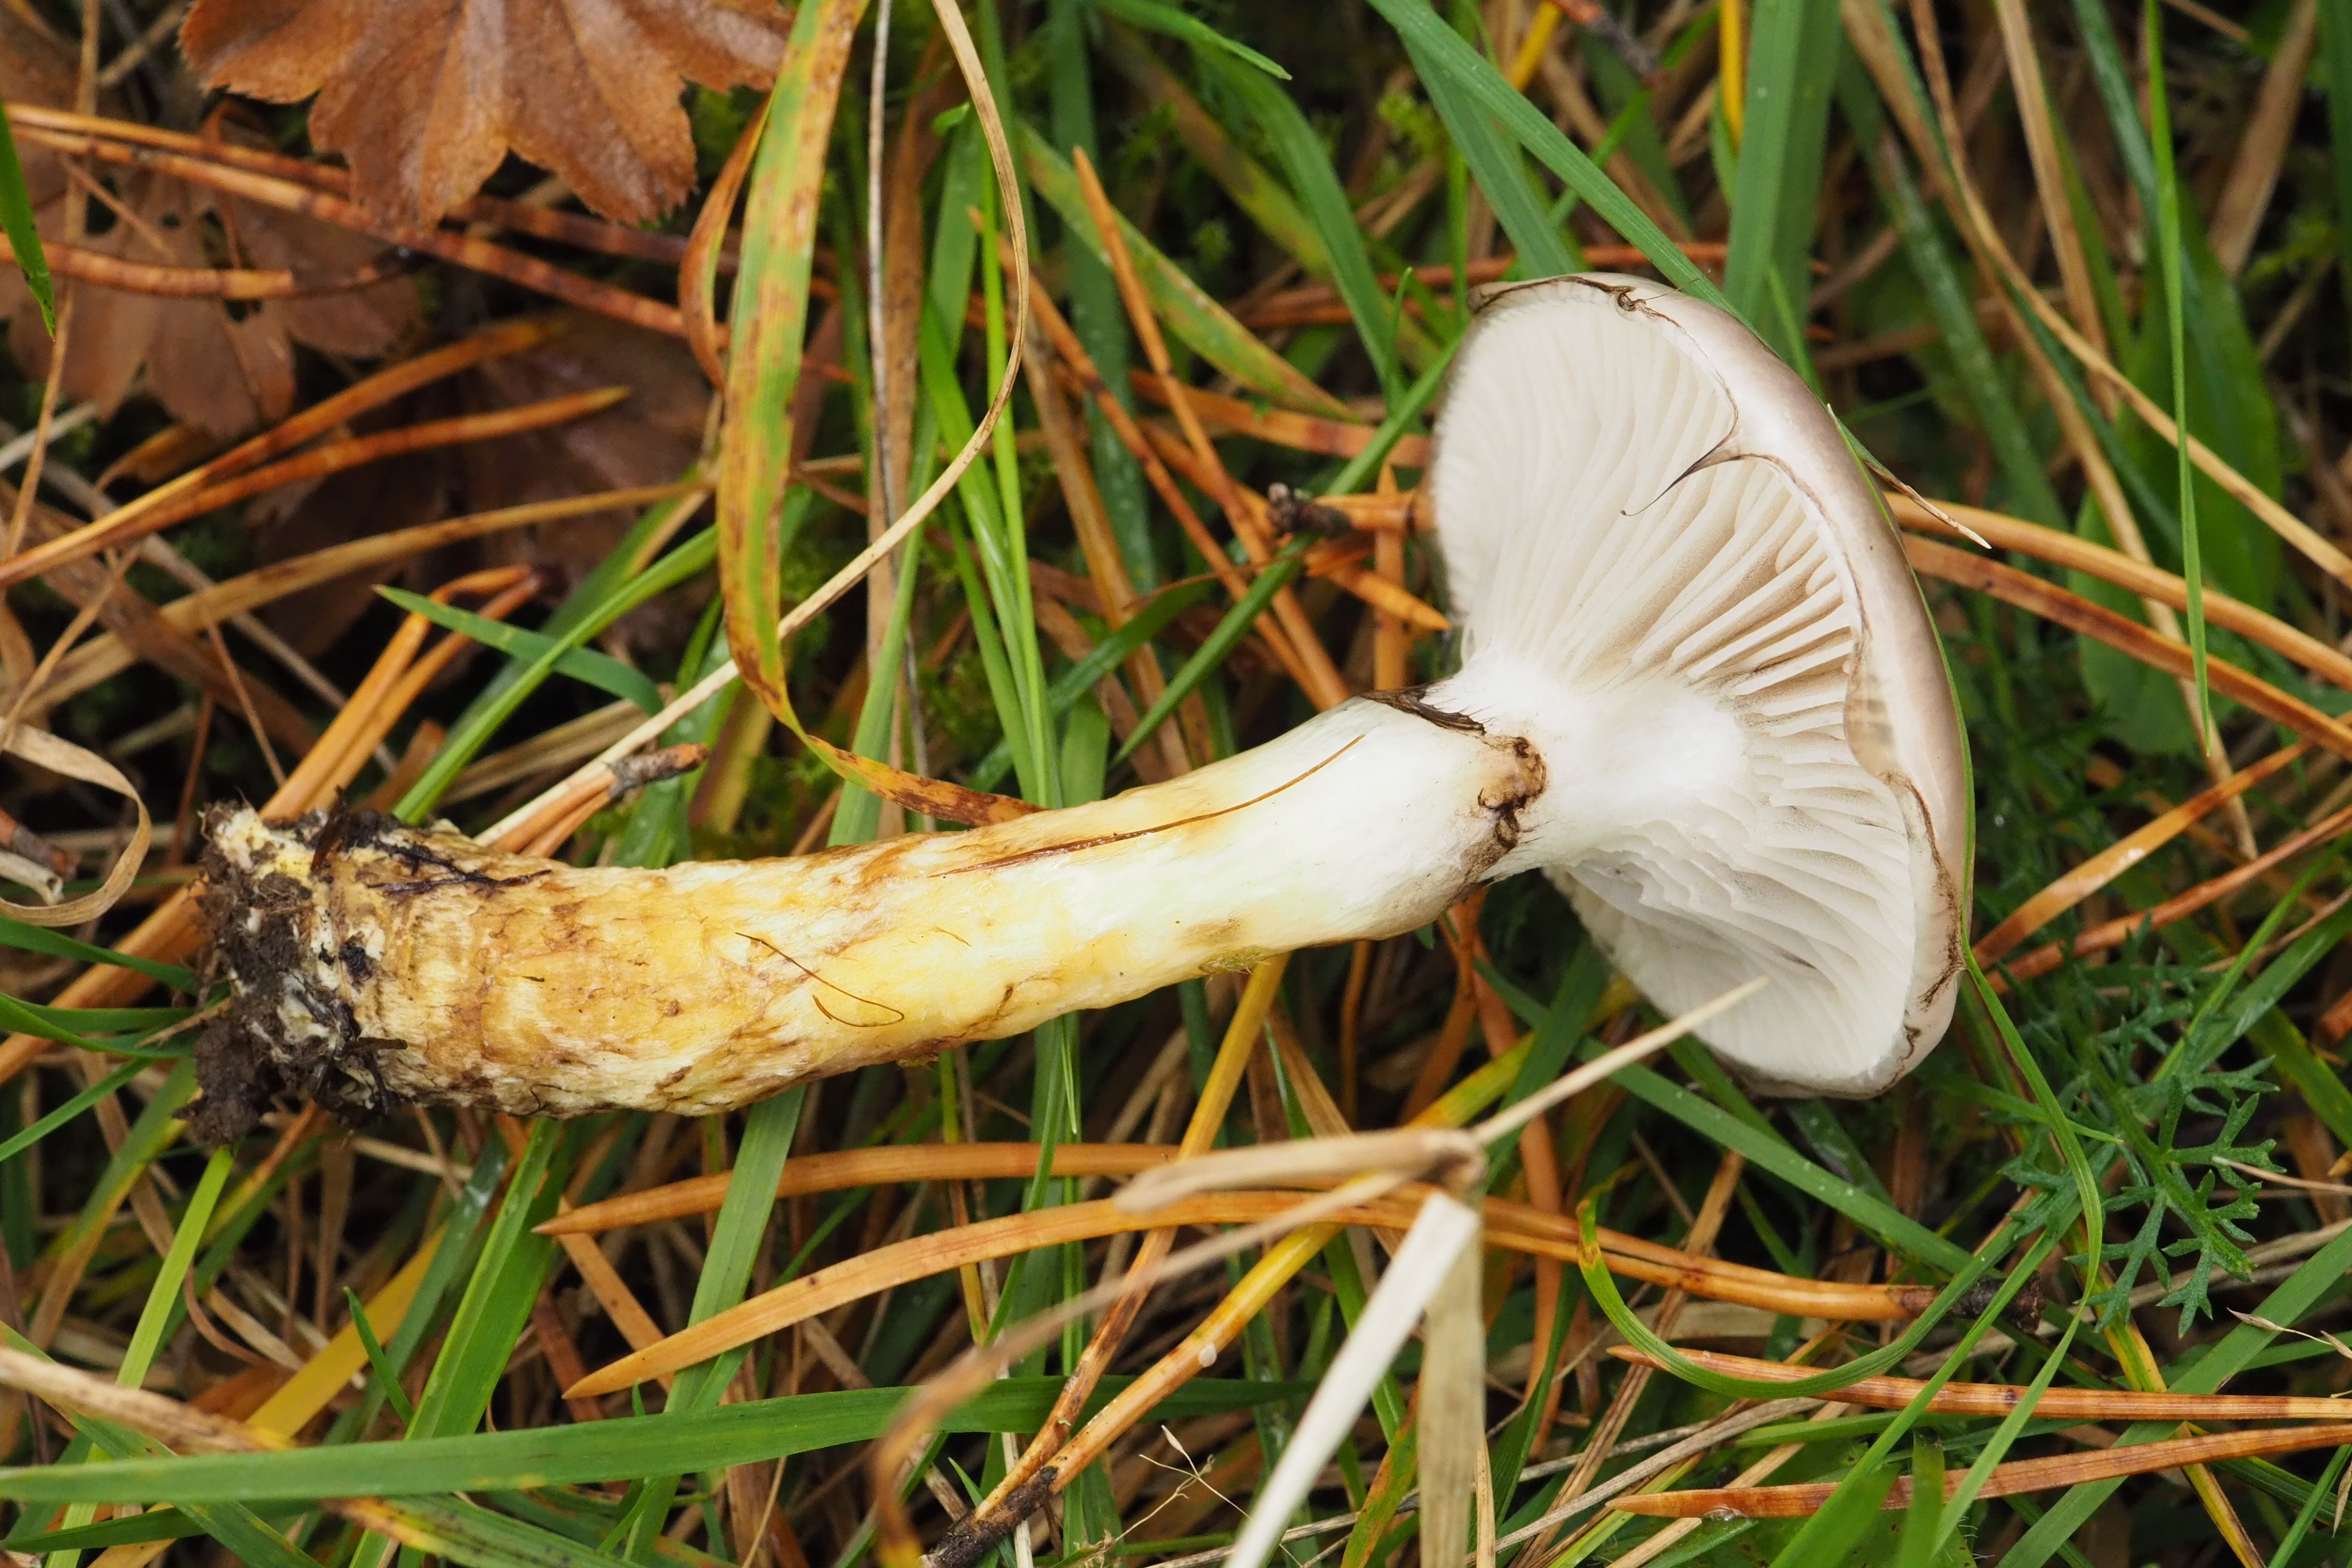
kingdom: Fungi
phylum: Basidiomycota
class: Agaricomycetes
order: Boletales
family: Gomphidiaceae
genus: Gomphidius
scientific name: Gomphidius glutinosus
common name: Slimy spike
